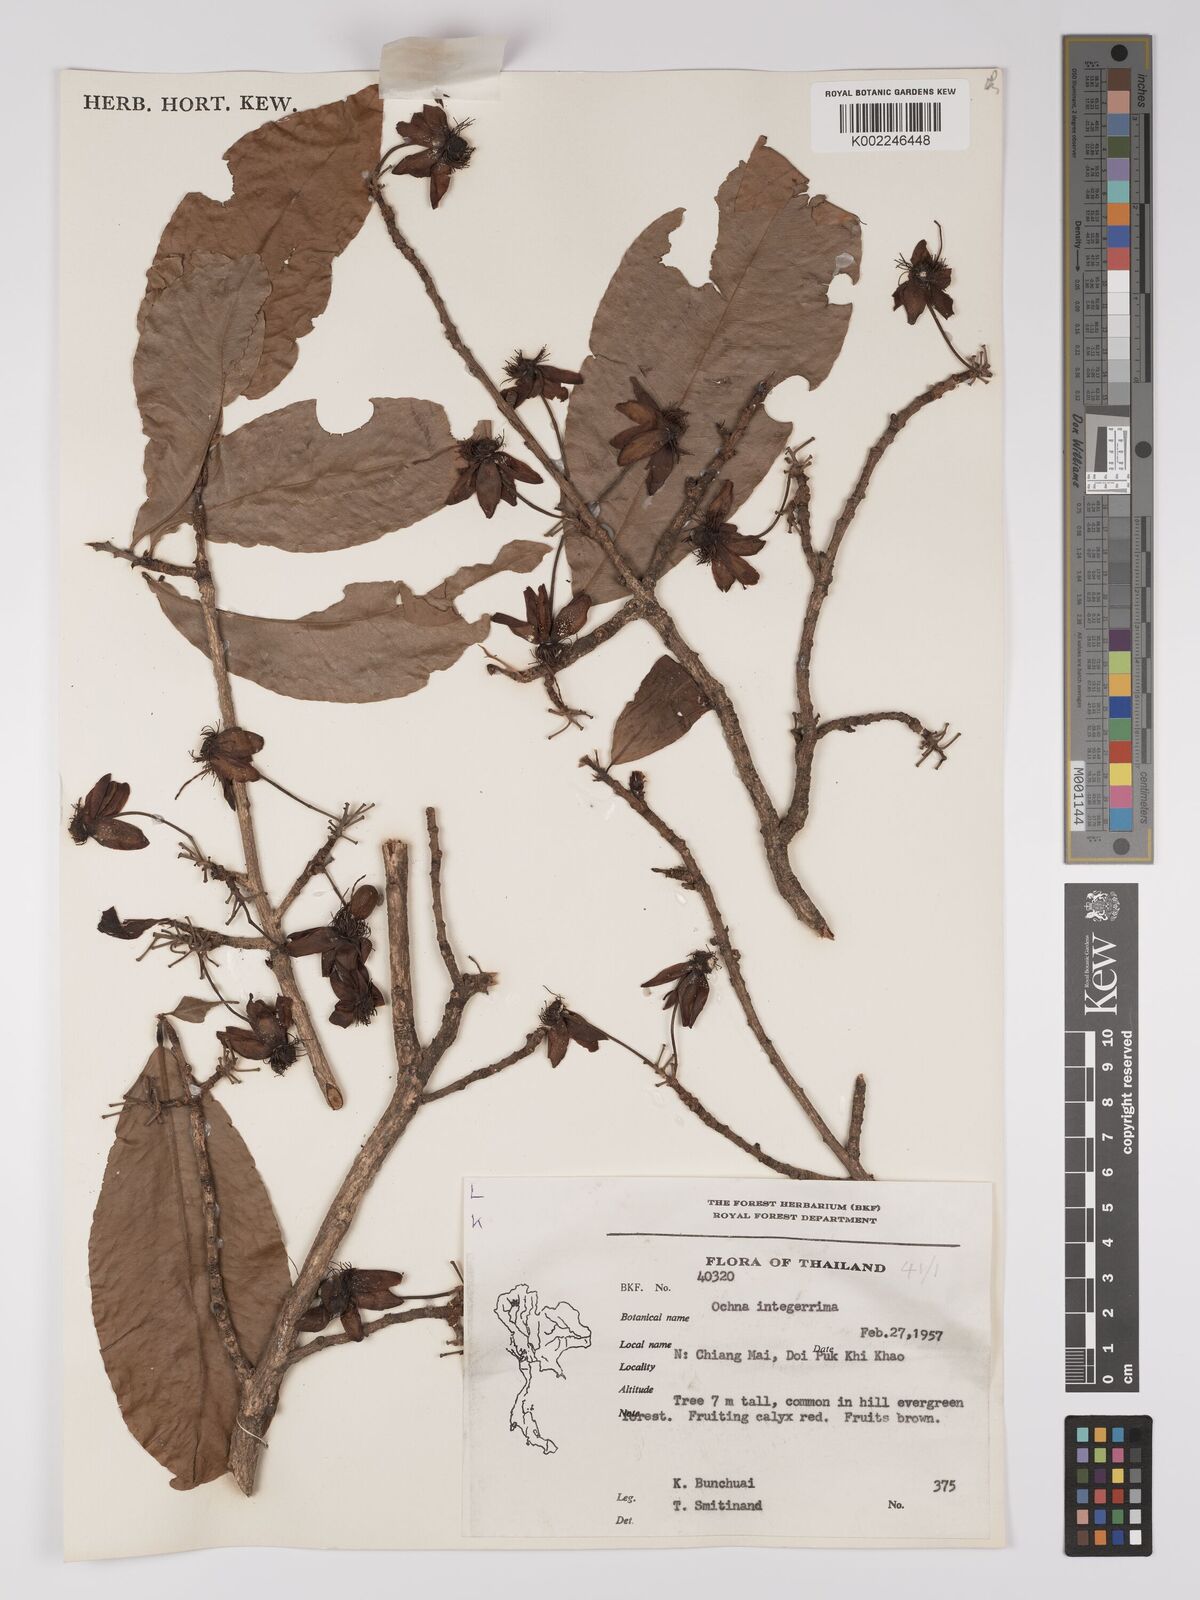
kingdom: Plantae
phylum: Tracheophyta
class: Magnoliopsida
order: Malpighiales
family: Ochnaceae
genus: Ochna
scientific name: Ochna integerrima
